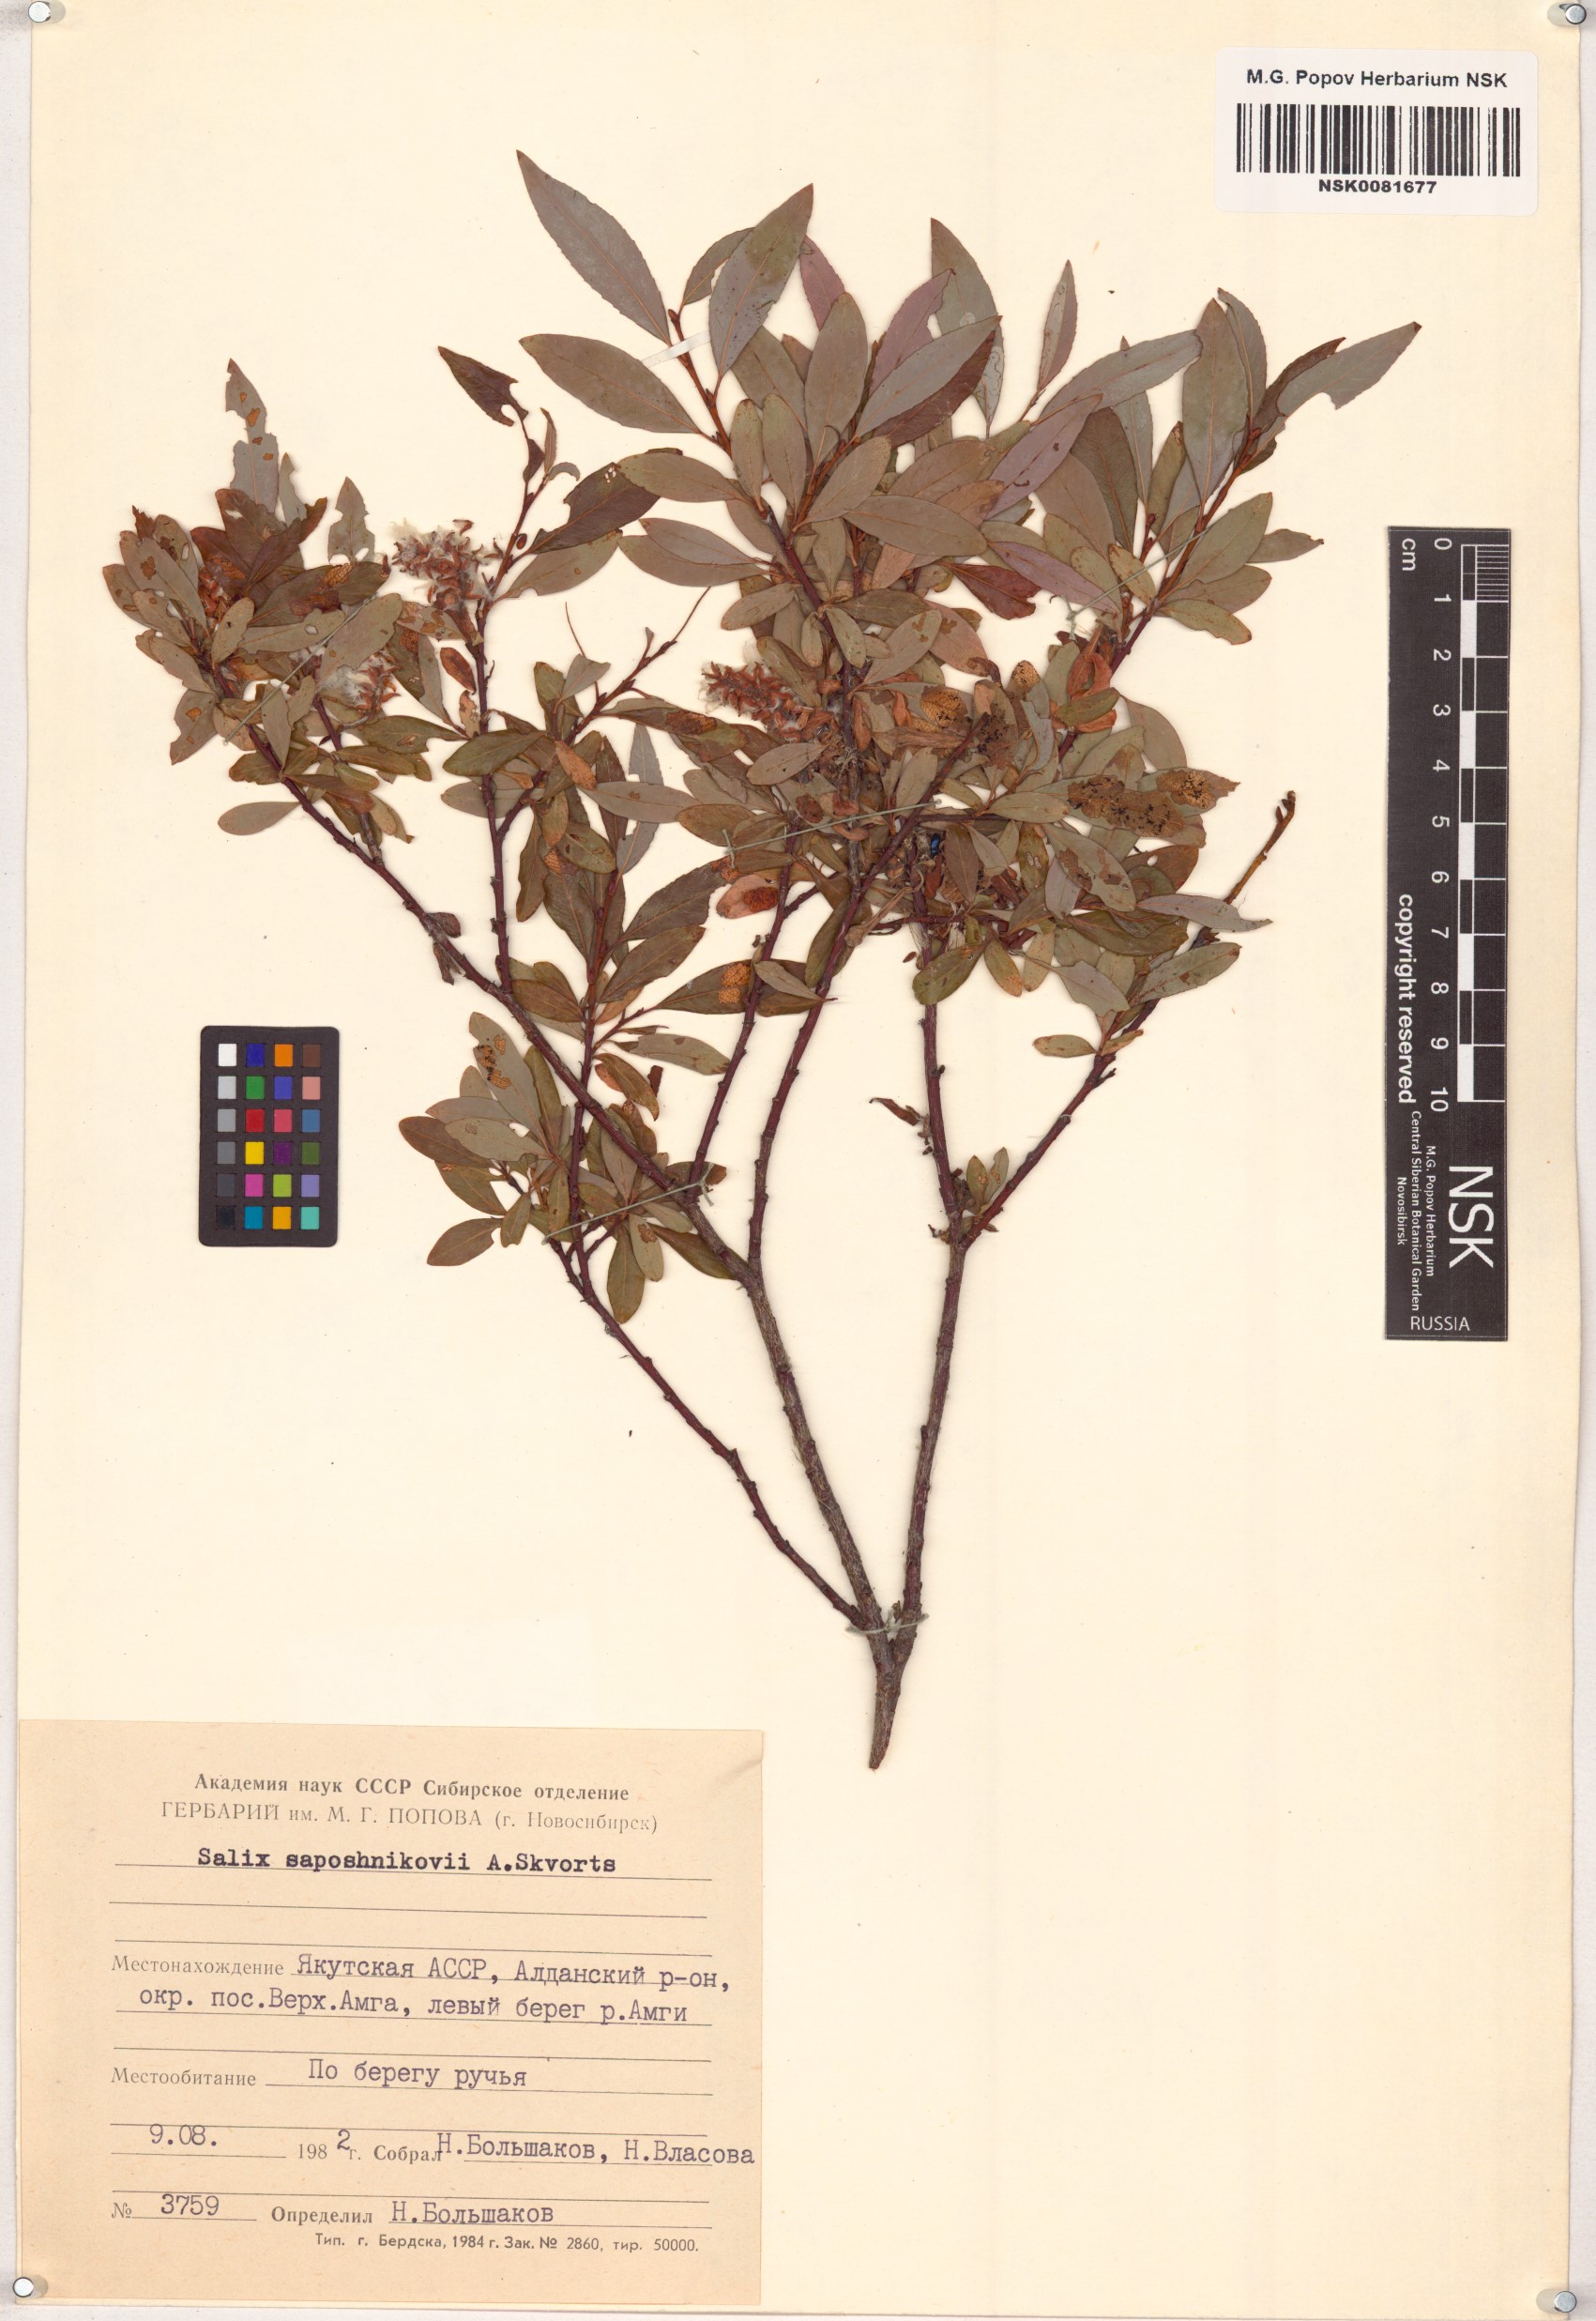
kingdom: Plantae
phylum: Tracheophyta
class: Magnoliopsida
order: Malpighiales
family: Salicaceae
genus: Salix
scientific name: Salix saposhnikovii
